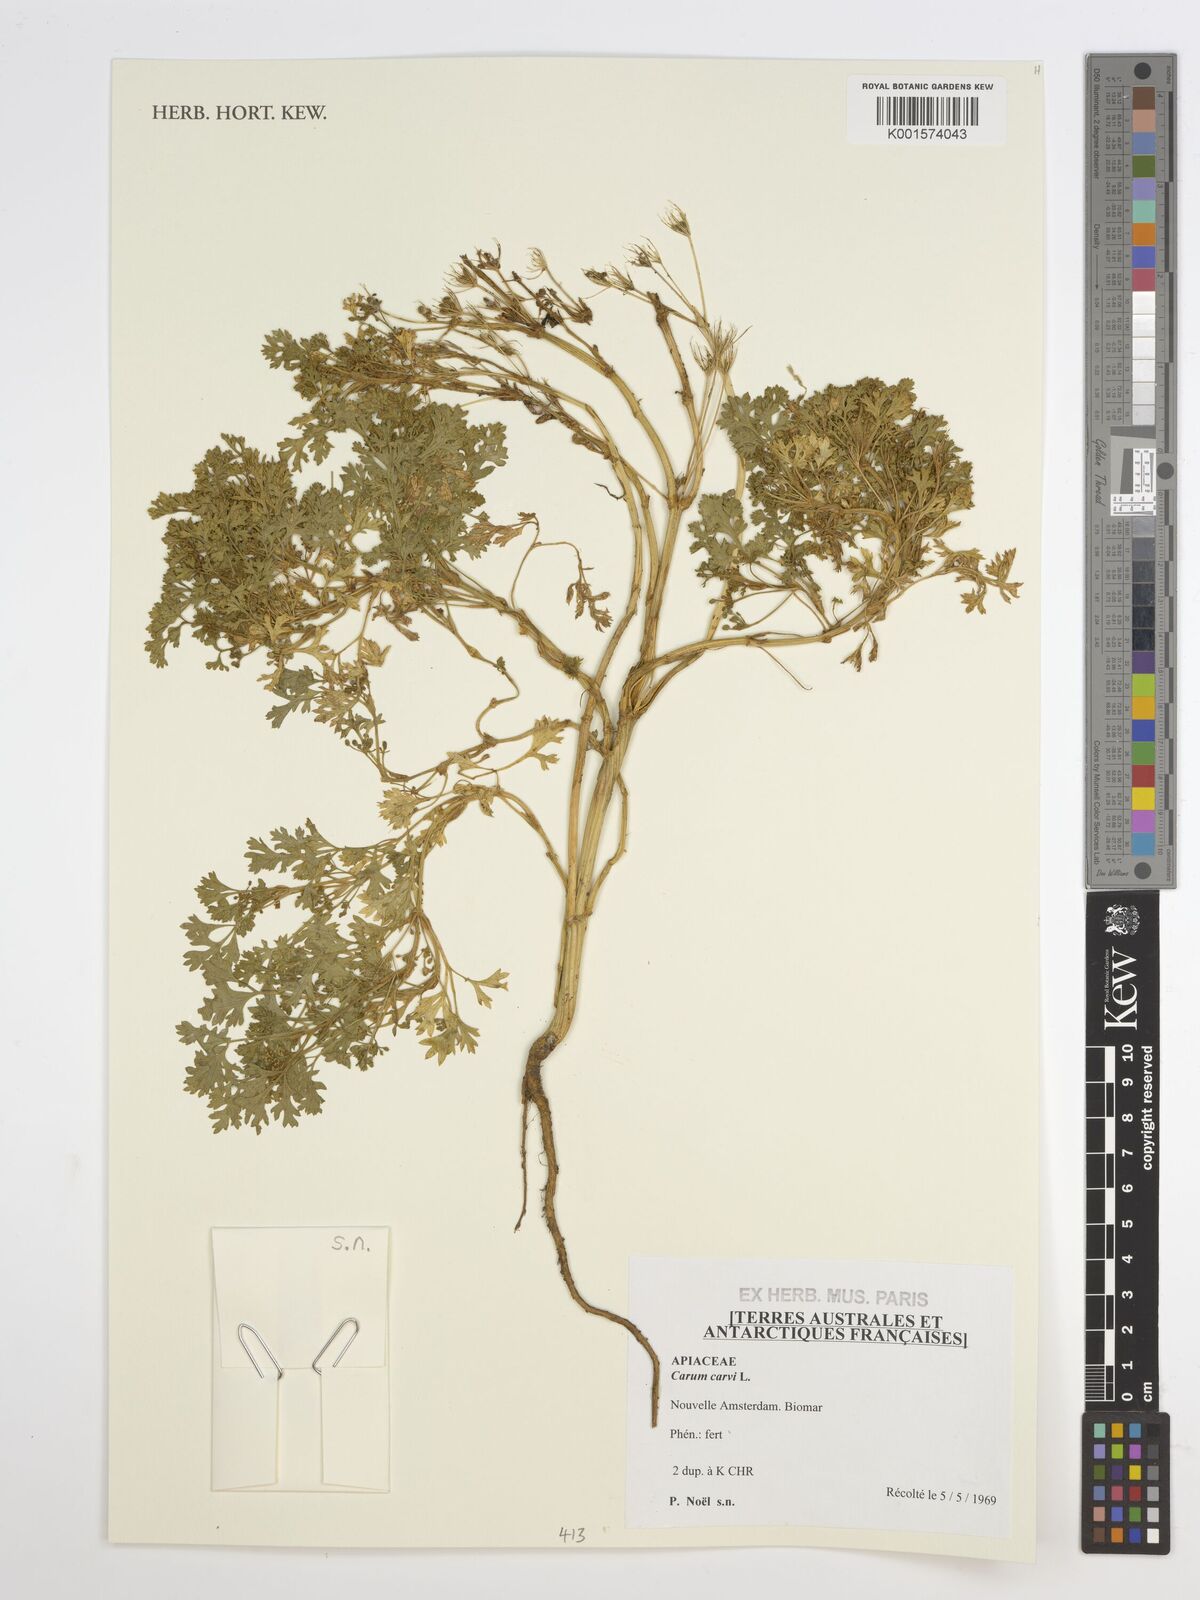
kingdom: Plantae
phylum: Tracheophyta
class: Magnoliopsida
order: Apiales
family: Apiaceae
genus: Carum
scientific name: Carum carvi
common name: Caraway
